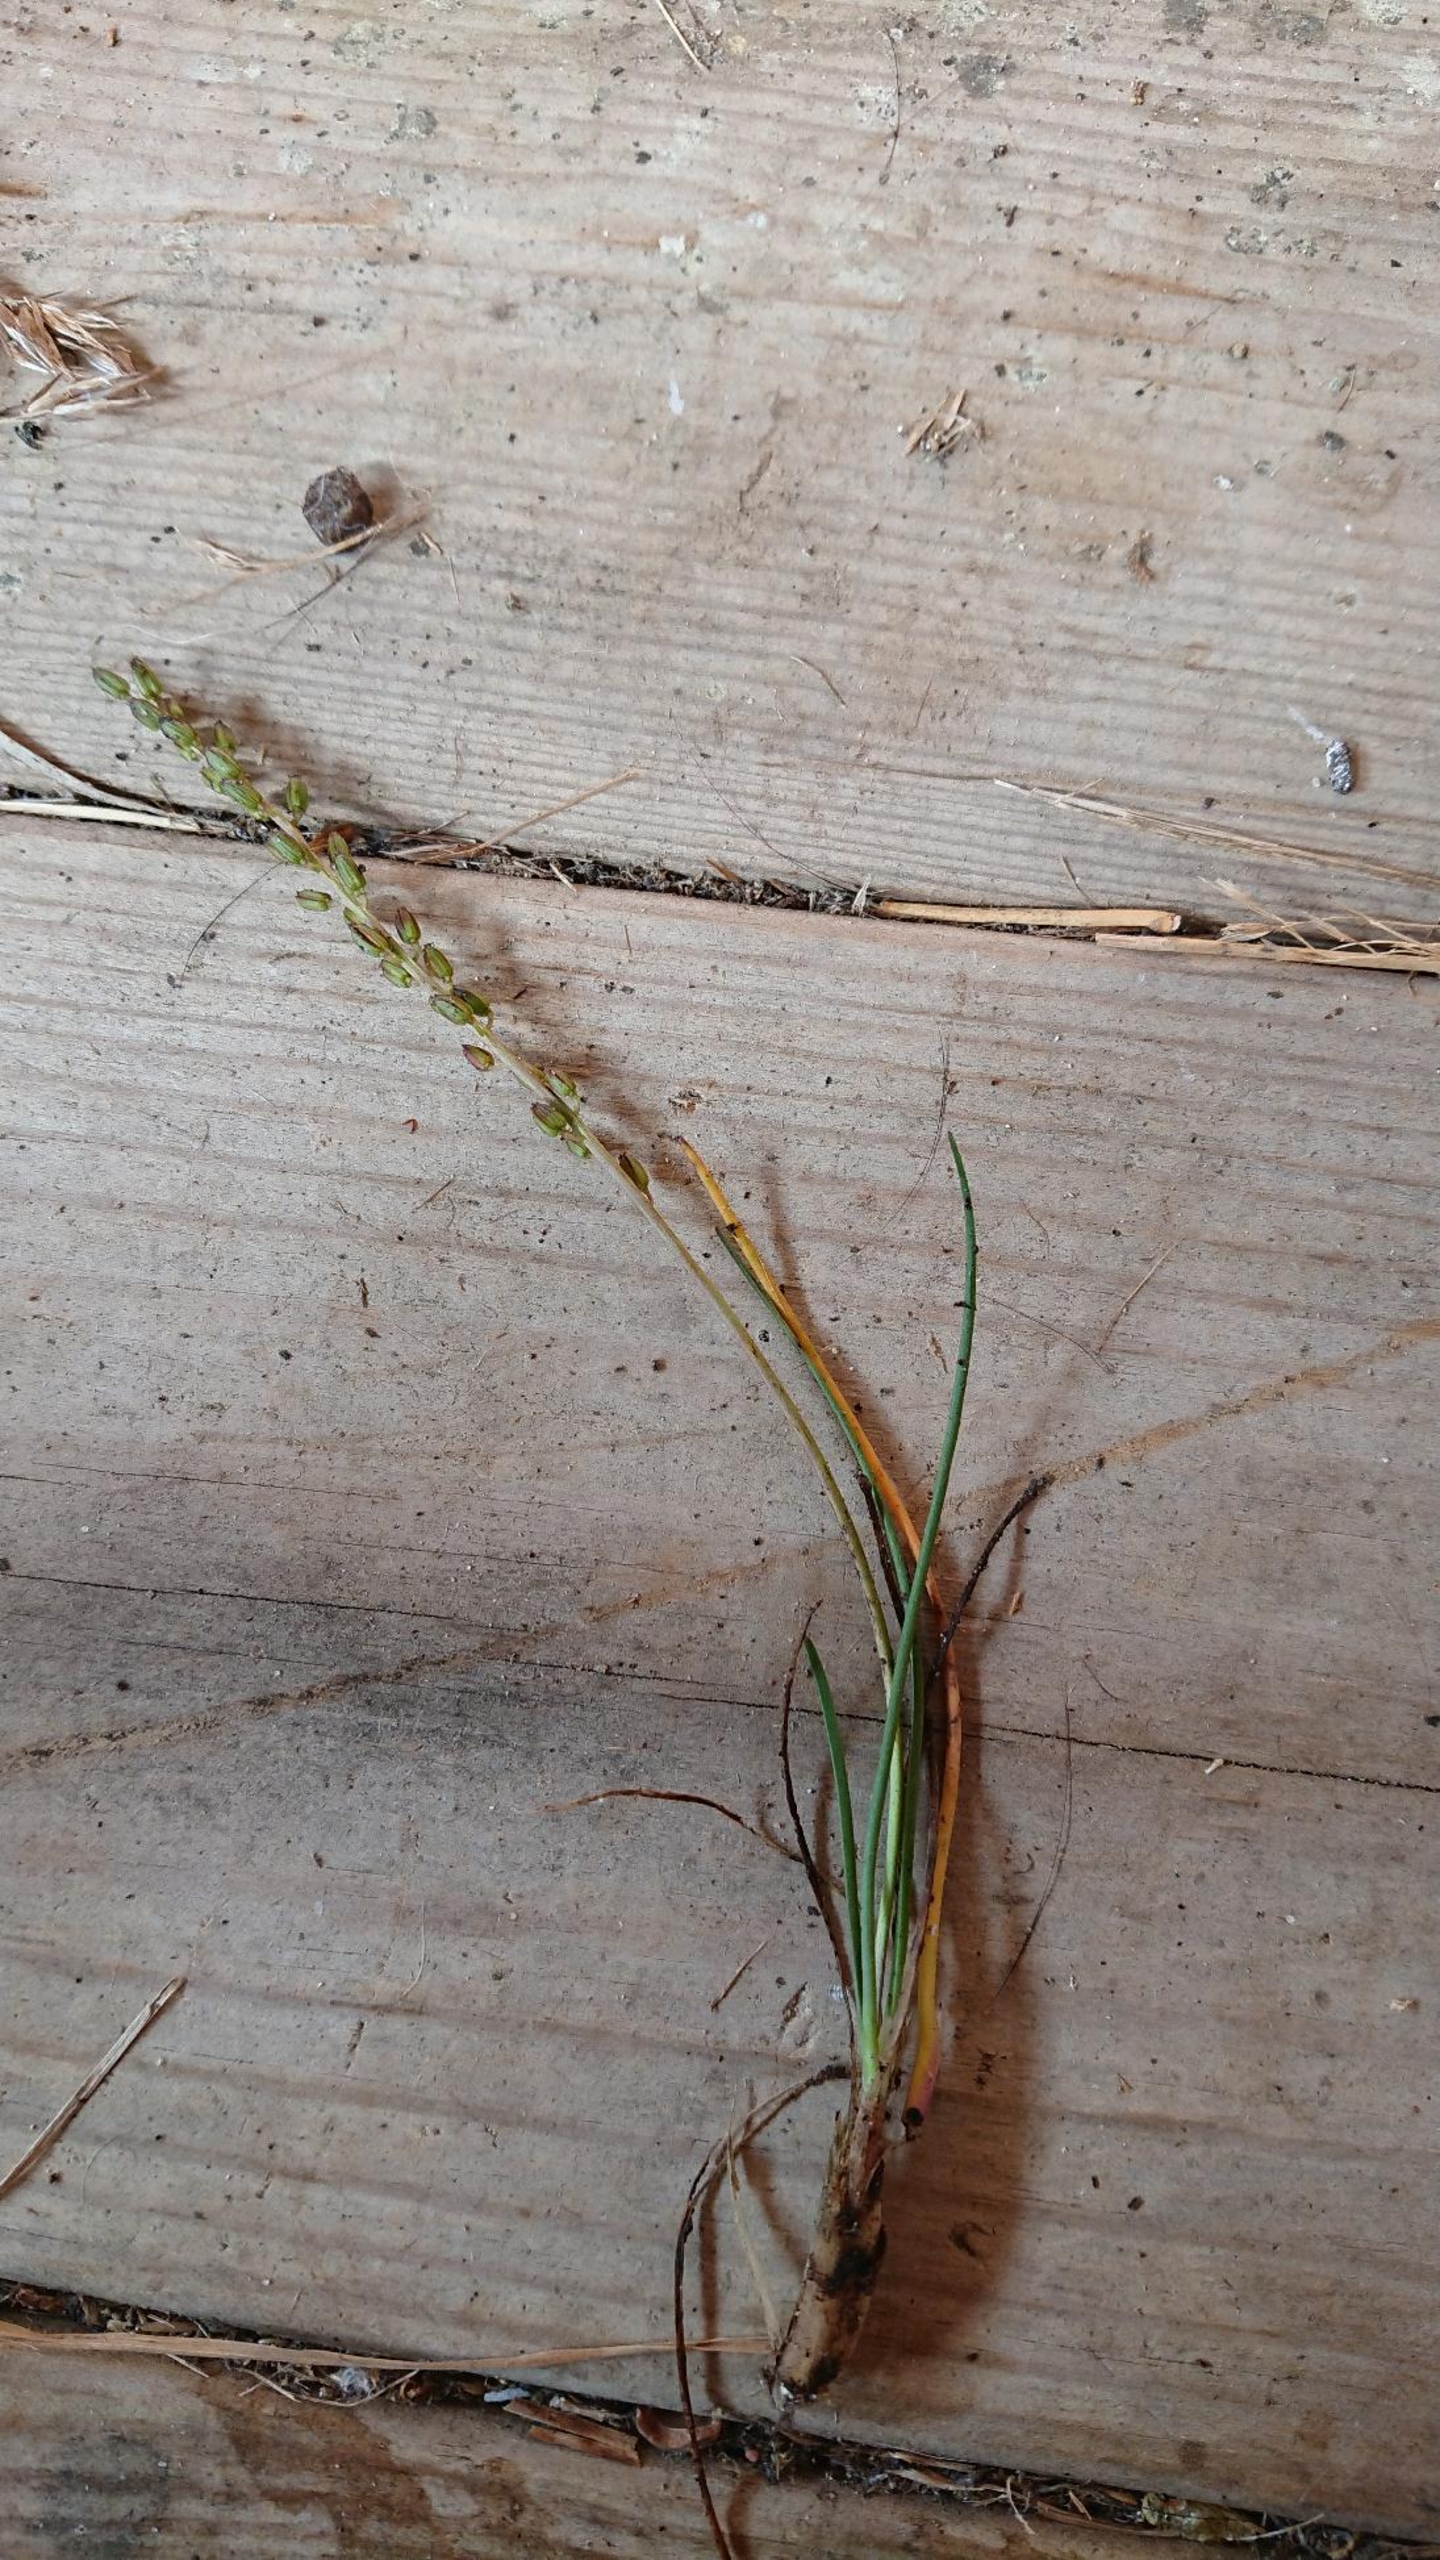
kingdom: Plantae
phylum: Tracheophyta
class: Liliopsida
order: Alismatales
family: Juncaginaceae
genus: Triglochin
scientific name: Triglochin maritima
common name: Strand-trehage
